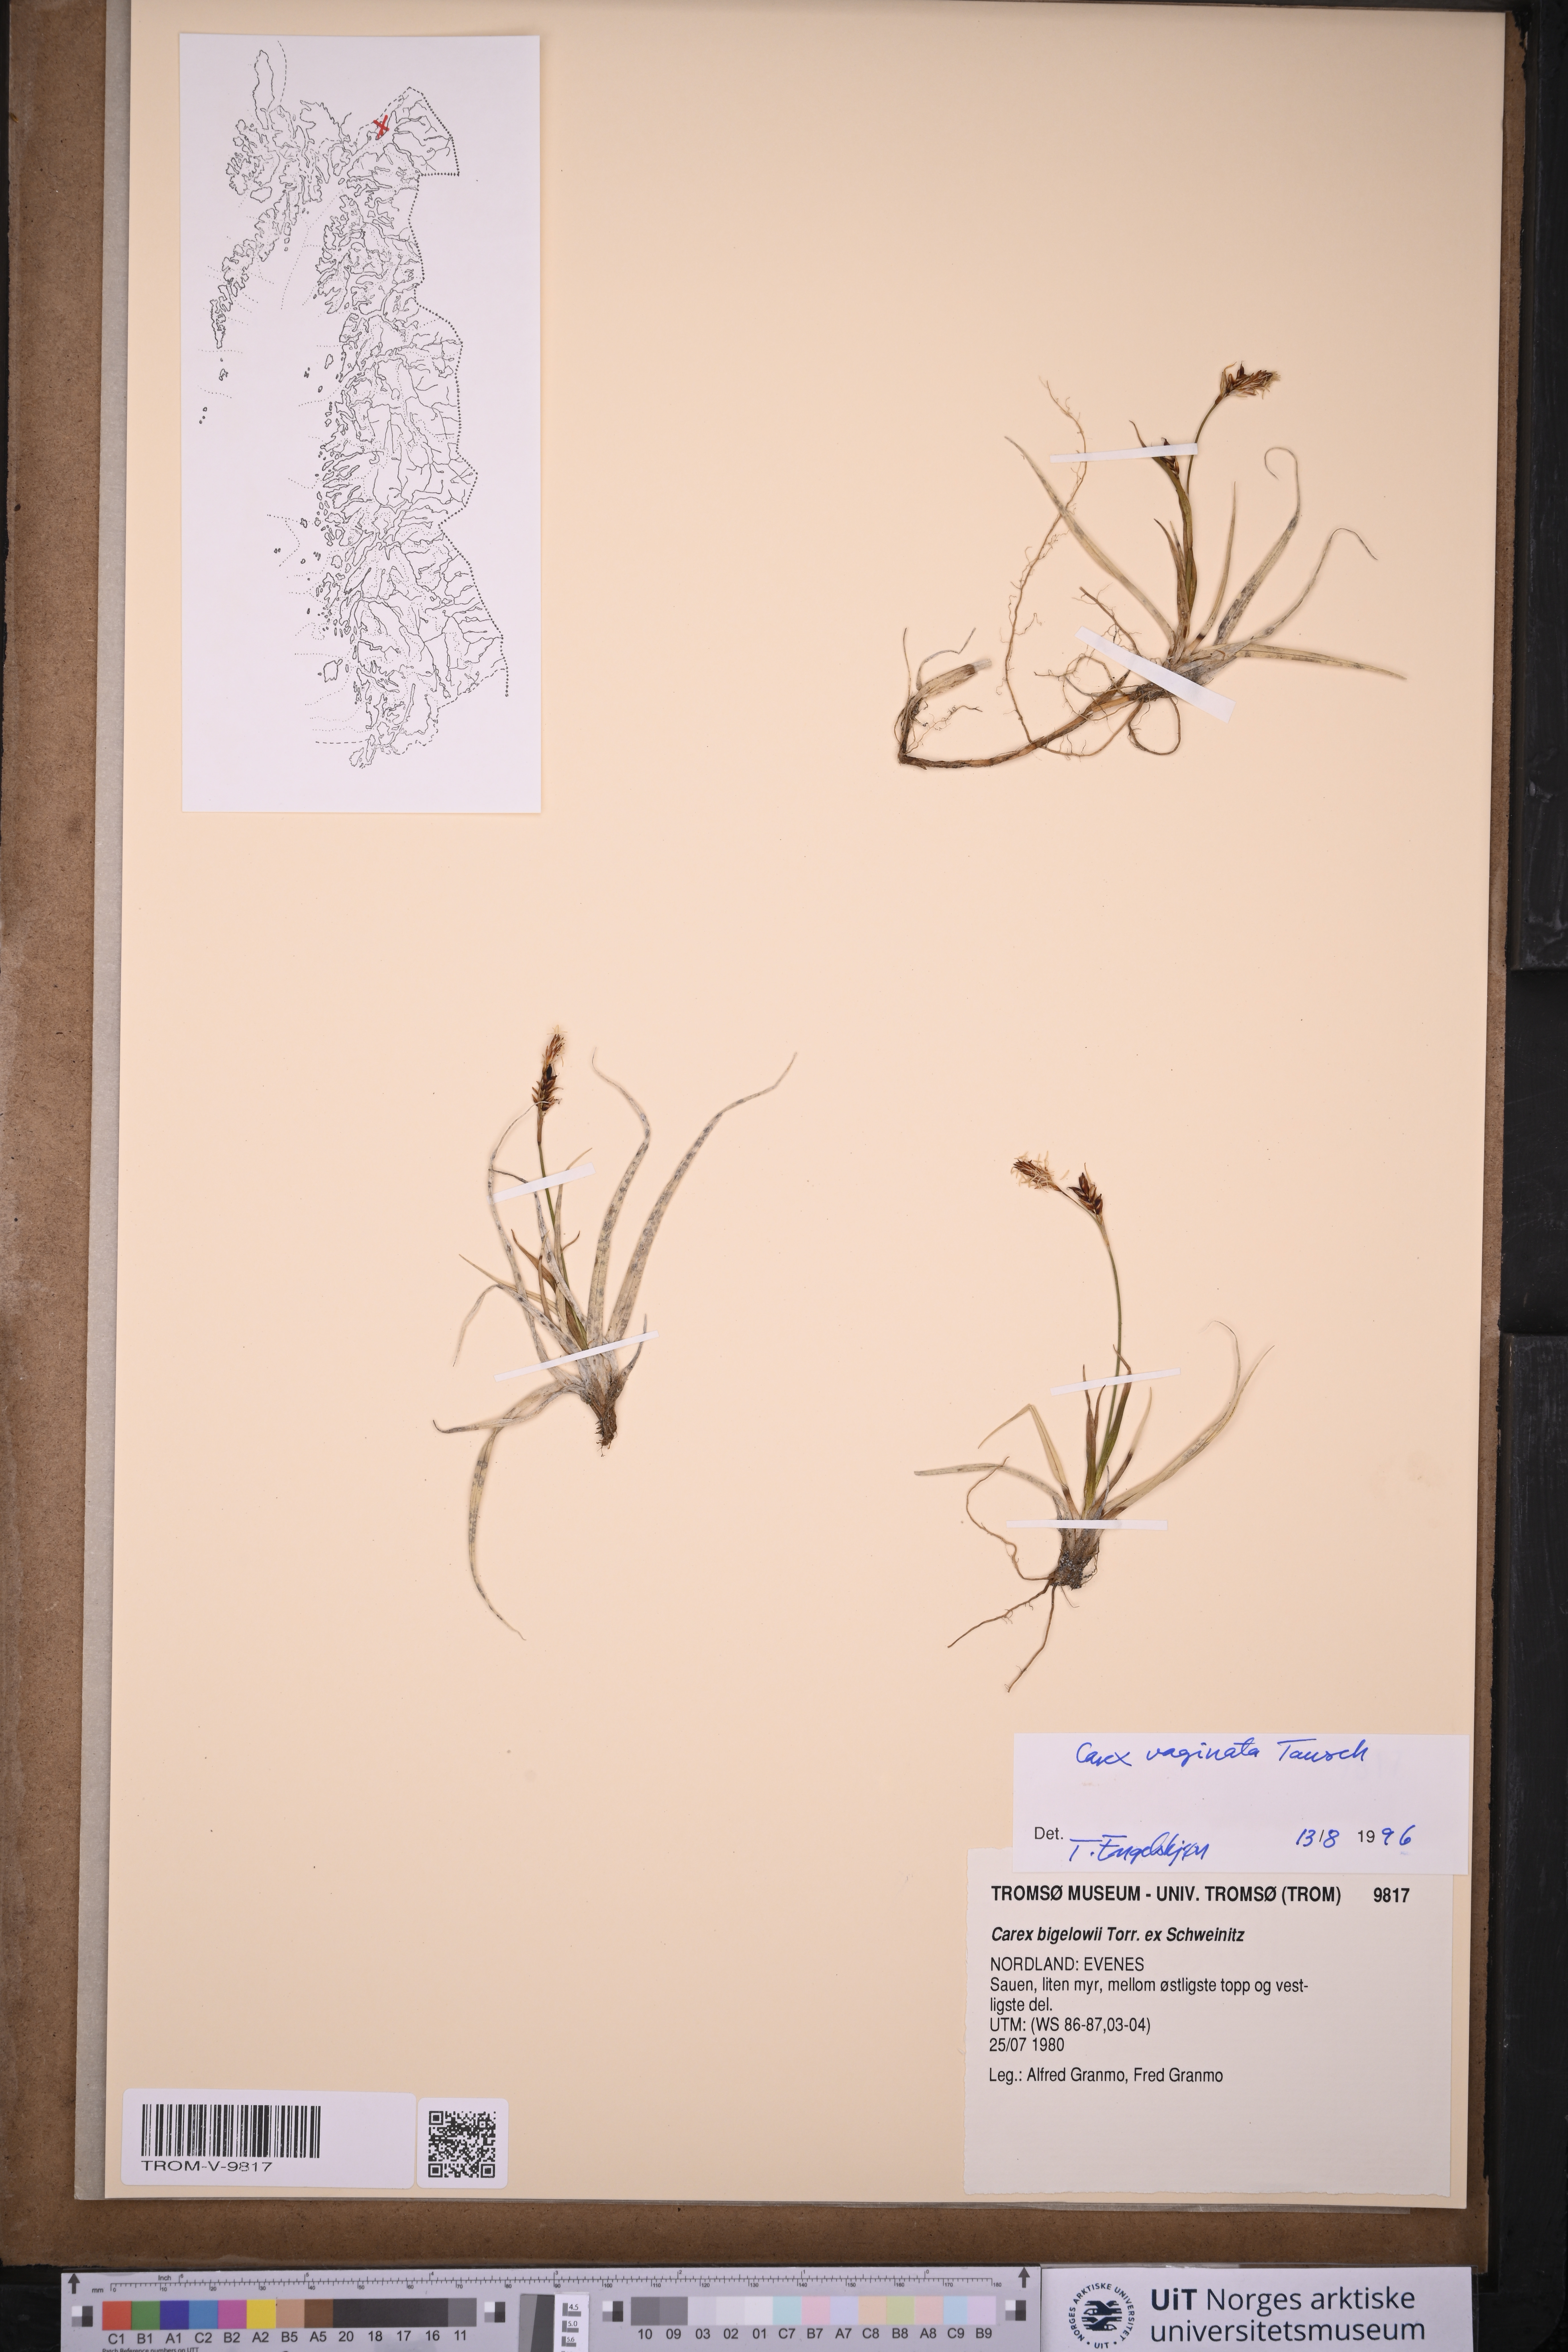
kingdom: Plantae
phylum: Tracheophyta
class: Liliopsida
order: Poales
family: Cyperaceae
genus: Carex
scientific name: Carex vaginata
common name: Sheathed sedge
